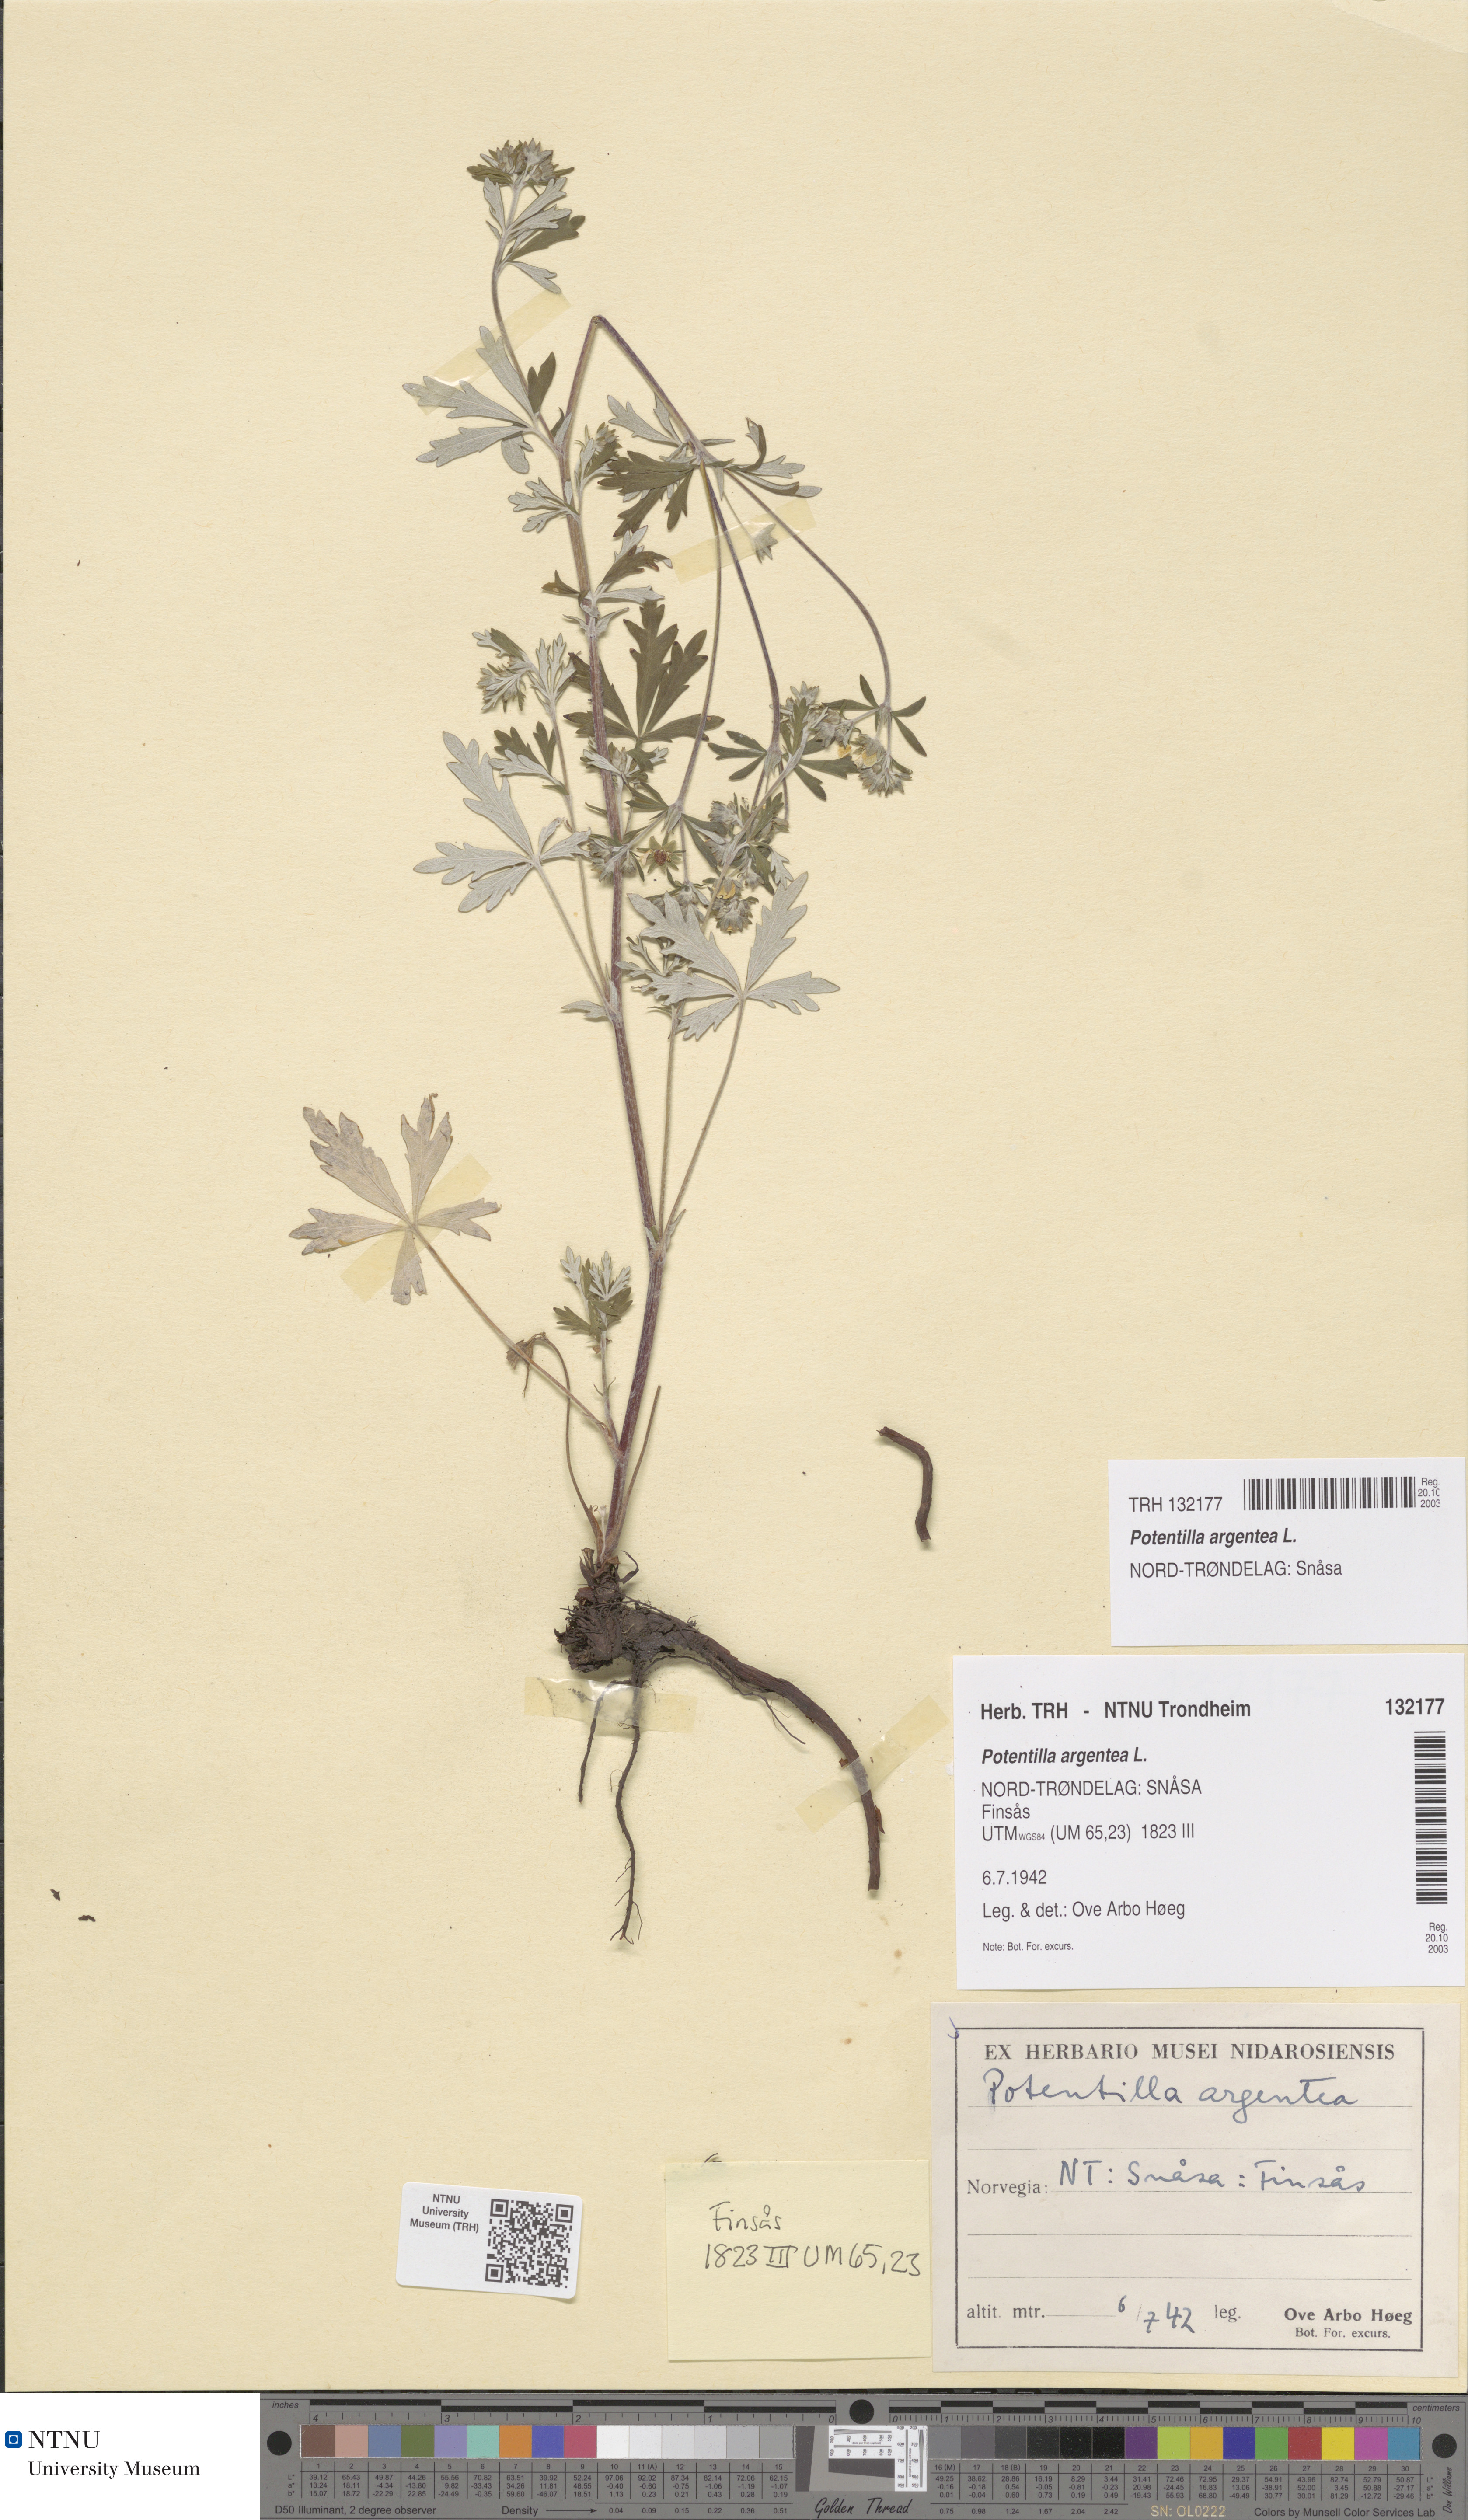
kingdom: Plantae
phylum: Tracheophyta
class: Magnoliopsida
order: Rosales
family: Rosaceae
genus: Potentilla
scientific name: Potentilla argentea
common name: Hoary cinquefoil
